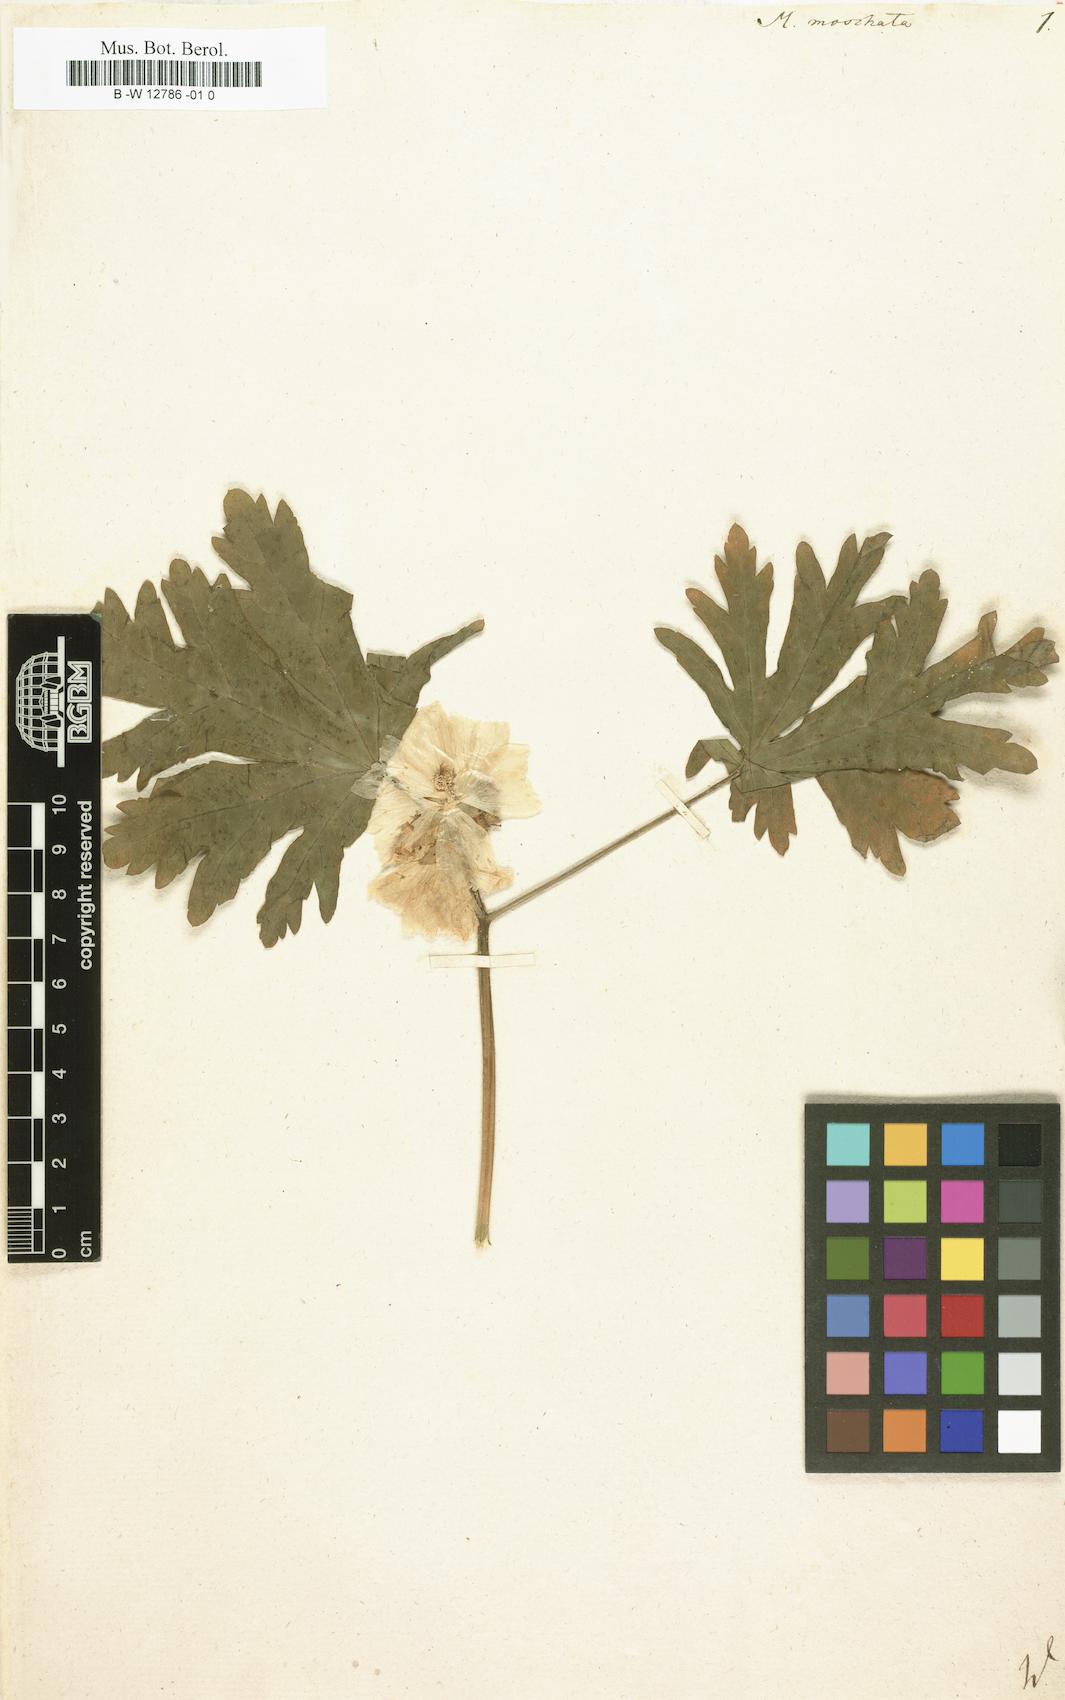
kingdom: Plantae
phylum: Tracheophyta
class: Magnoliopsida
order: Malvales
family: Malvaceae
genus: Malva
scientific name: Malva
